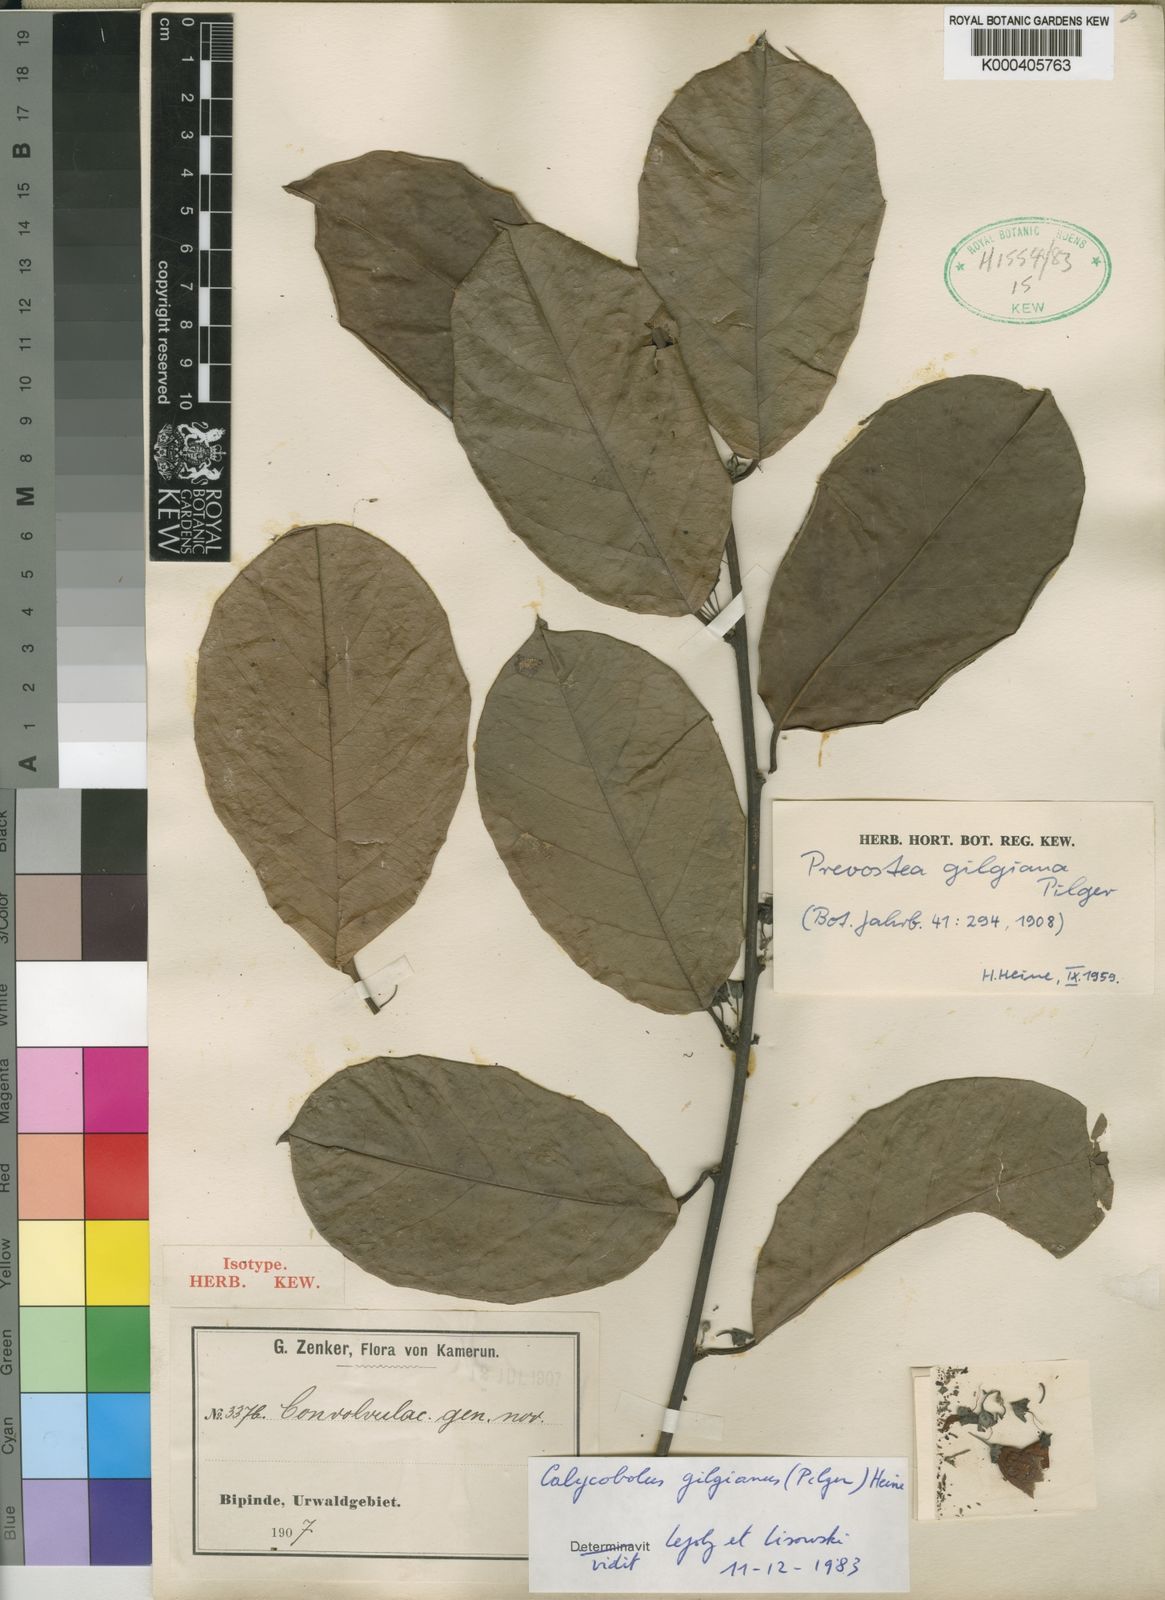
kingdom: Plantae
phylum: Tracheophyta
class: Magnoliopsida
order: Solanales
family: Convolvulaceae
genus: Calycobolus
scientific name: Calycobolus gilgianus
